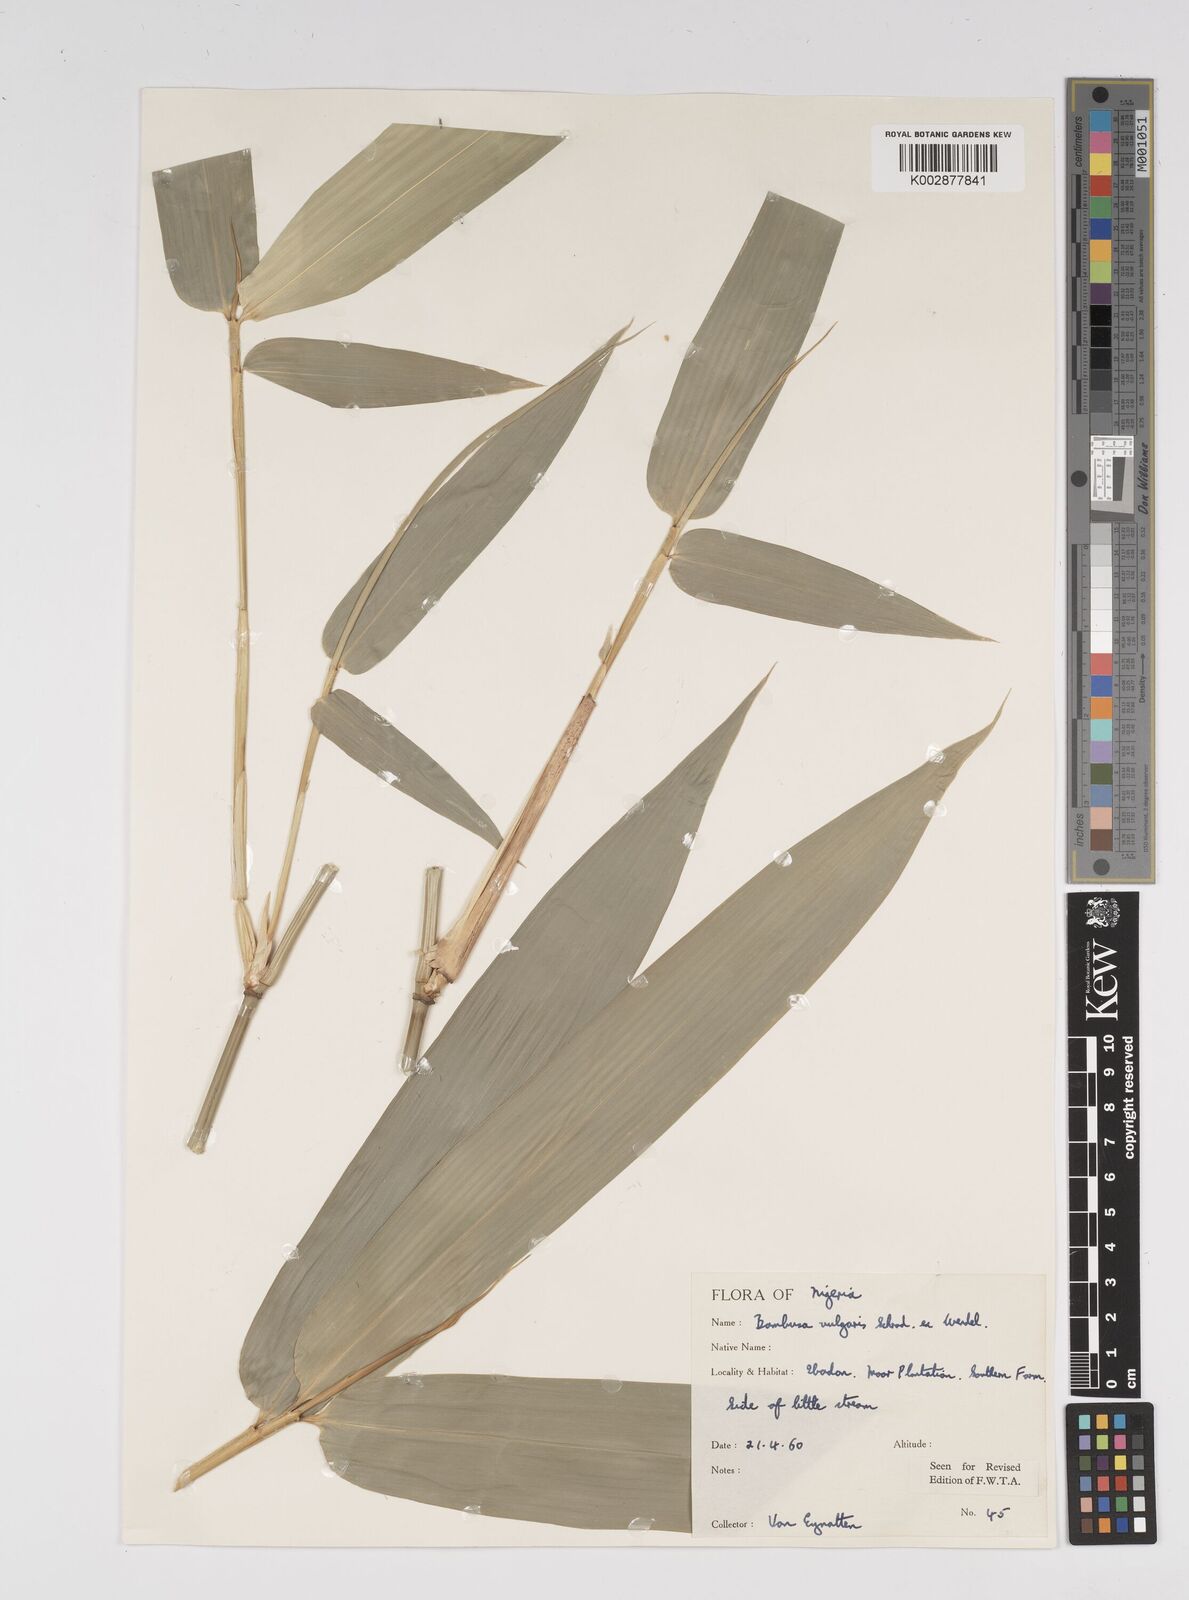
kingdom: Plantae
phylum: Tracheophyta
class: Liliopsida
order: Poales
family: Poaceae
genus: Bambusa
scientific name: Bambusa vulgaris
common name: Common bamboo
